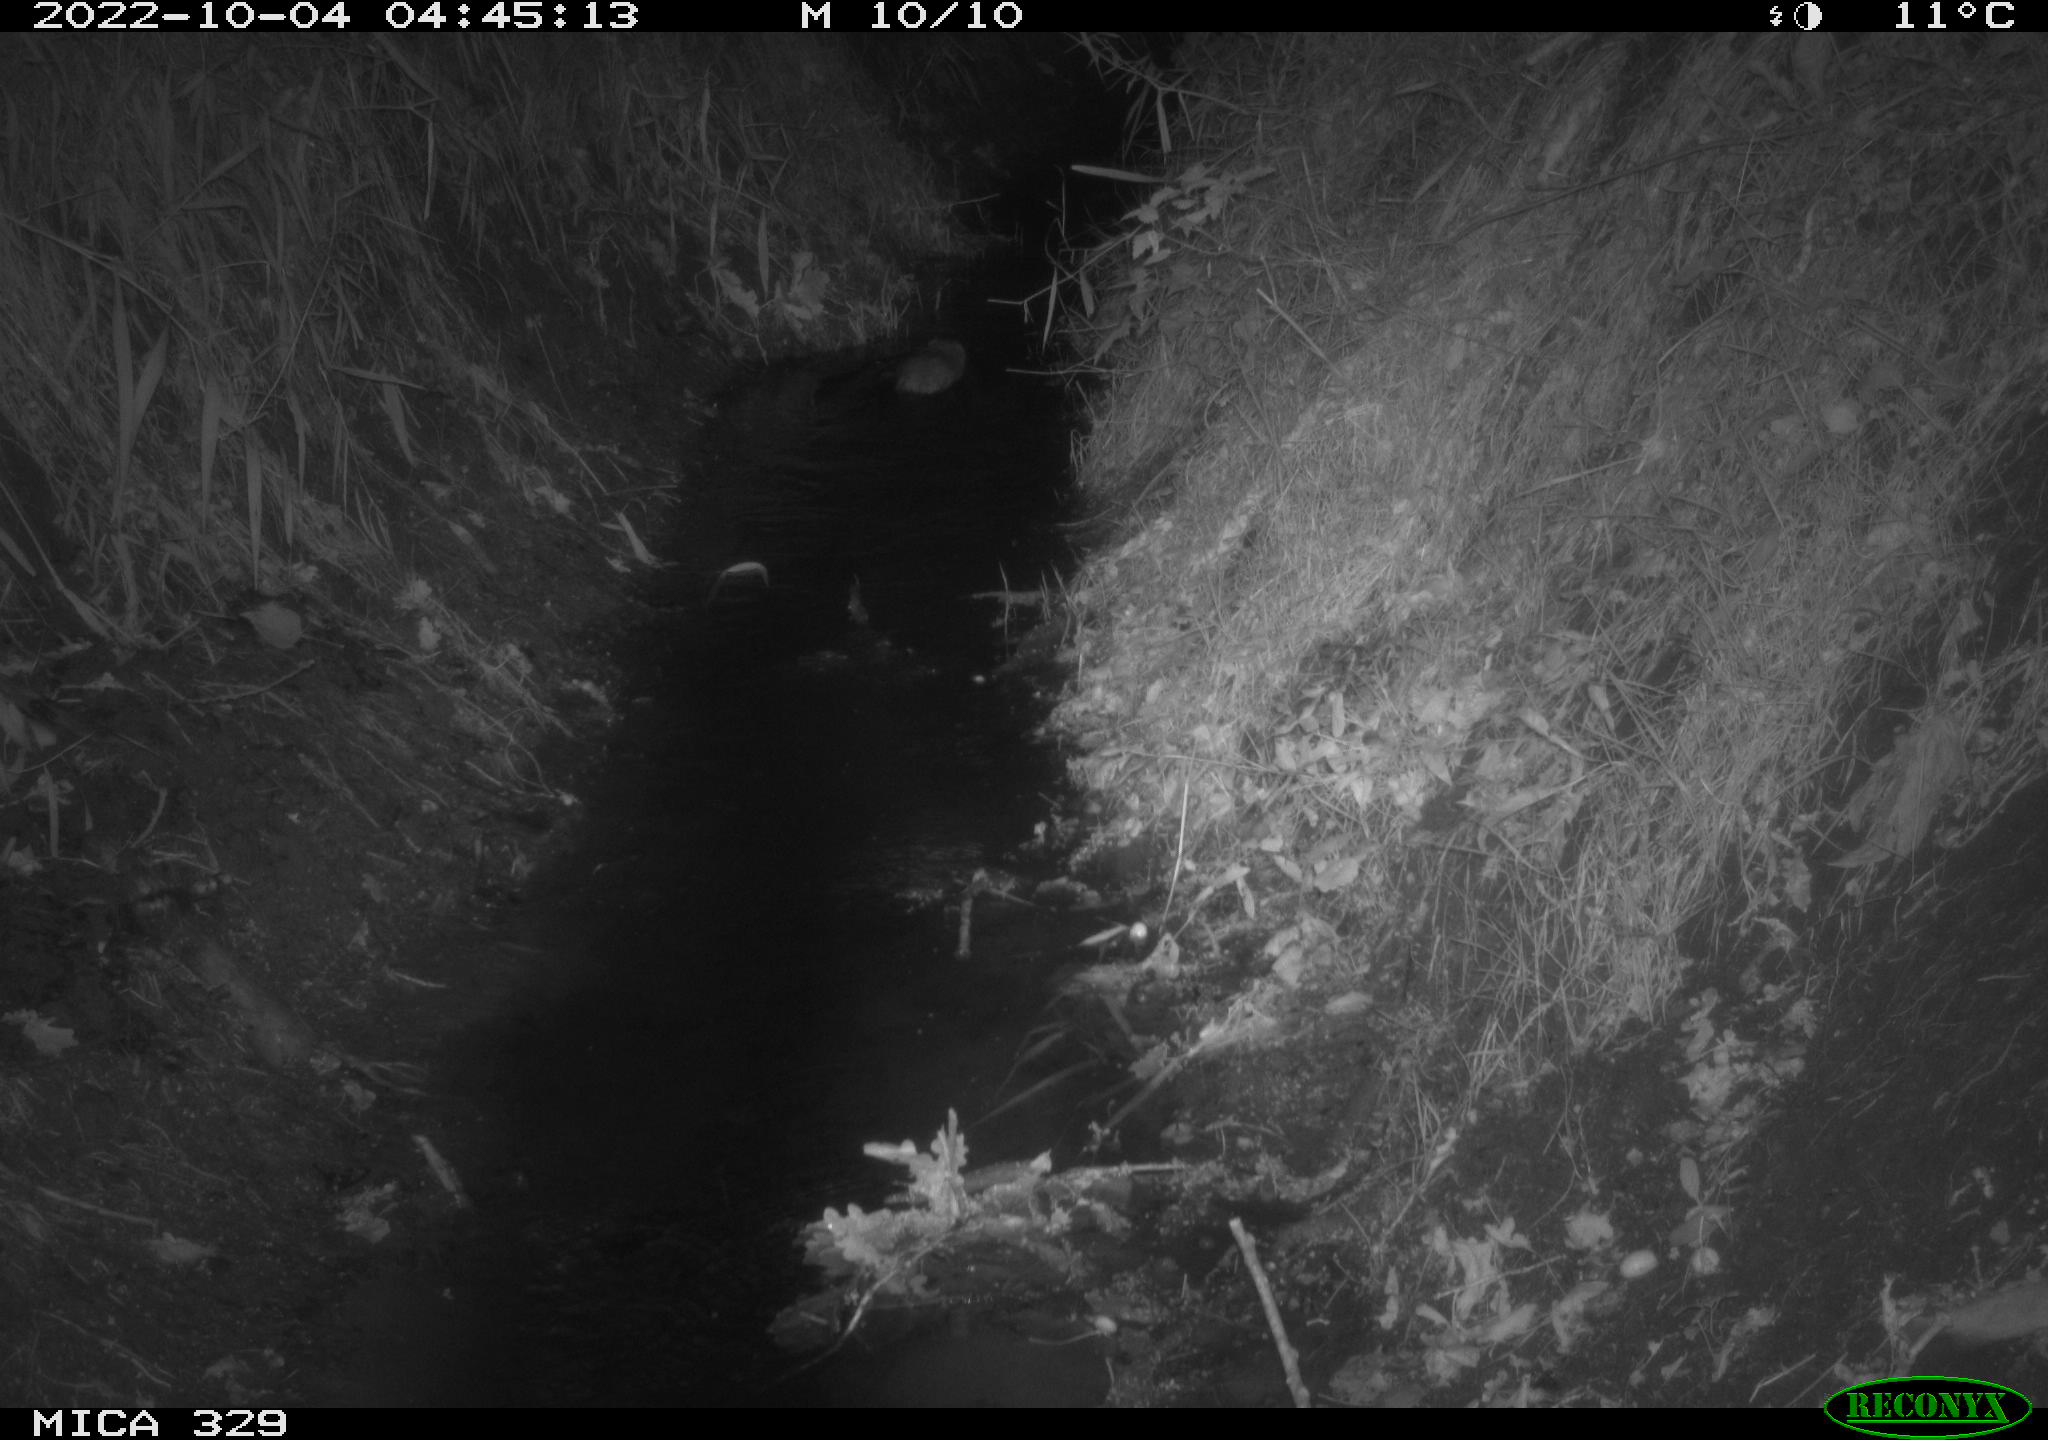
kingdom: Animalia
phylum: Chordata
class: Mammalia
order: Rodentia
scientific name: Rodentia
